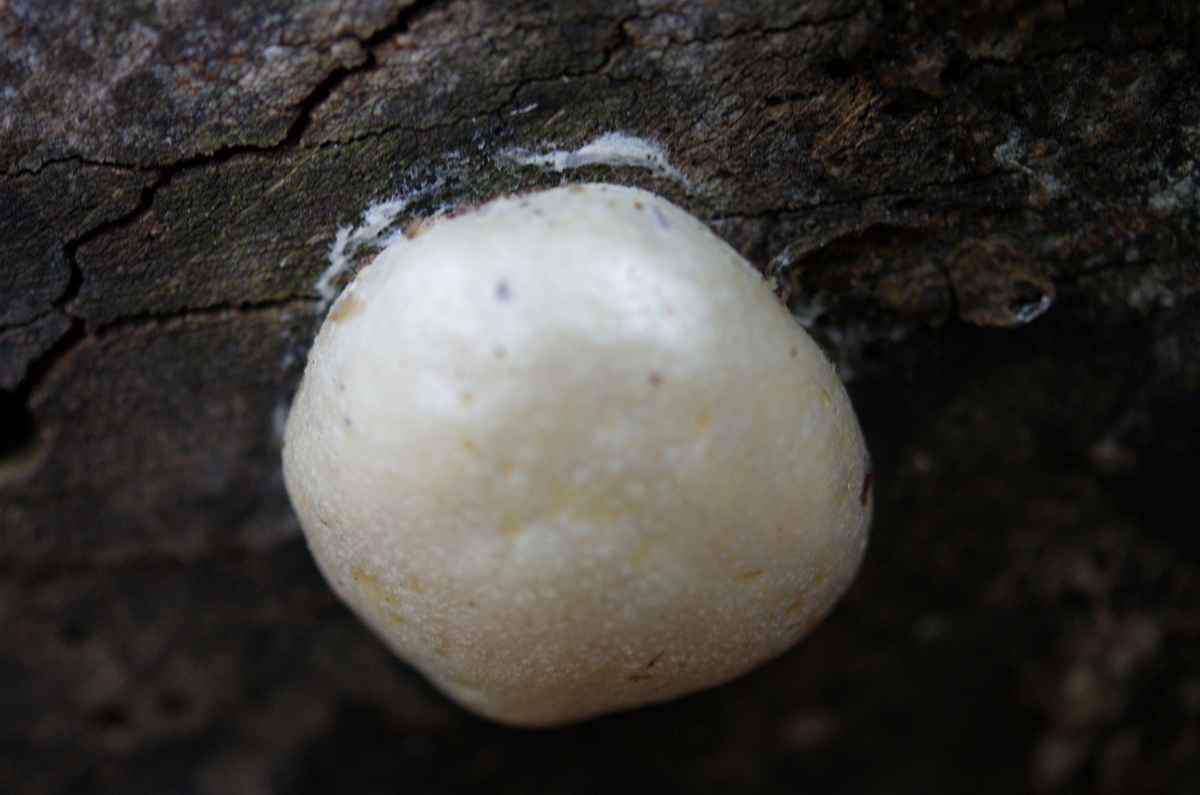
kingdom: Protozoa
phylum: Mycetozoa
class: Myxomycetes
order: Cribrariales
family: Tubiferaceae
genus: Reticularia
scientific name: Reticularia lycoperdon
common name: skinnende støvpude
